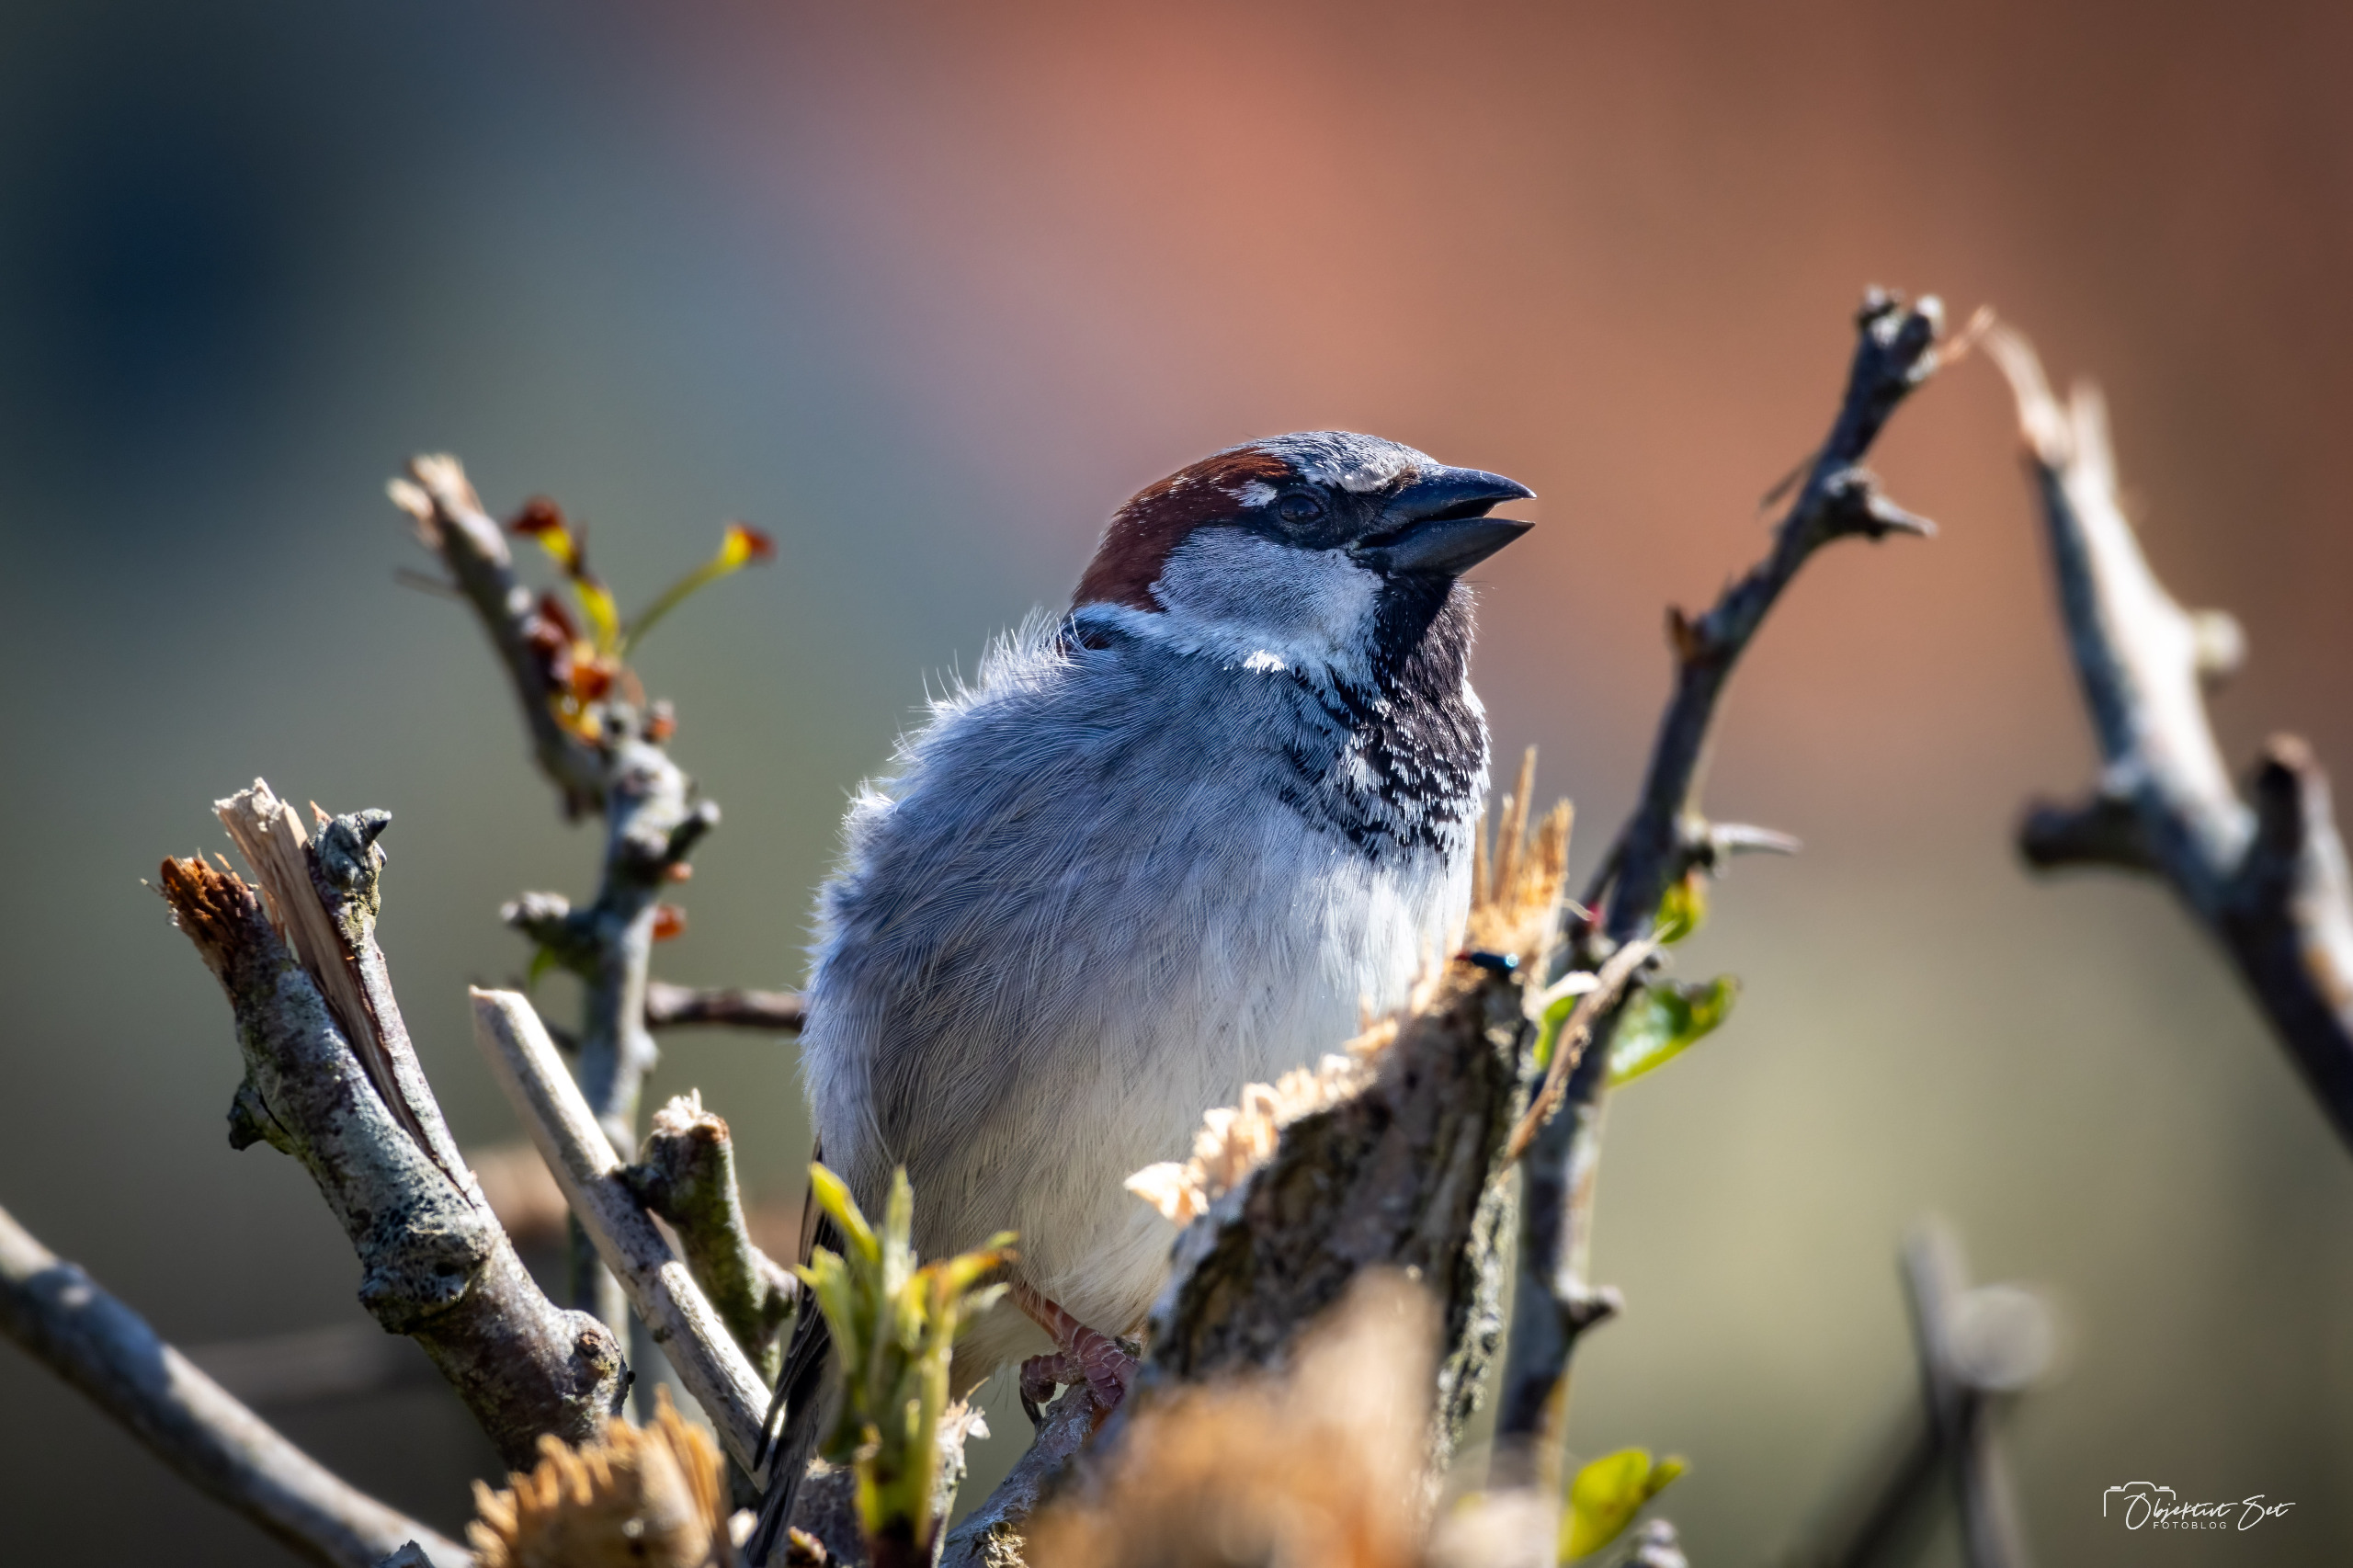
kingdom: Animalia
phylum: Chordata
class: Aves
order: Passeriformes
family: Passeridae
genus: Passer
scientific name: Passer domesticus
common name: Gråspurv
